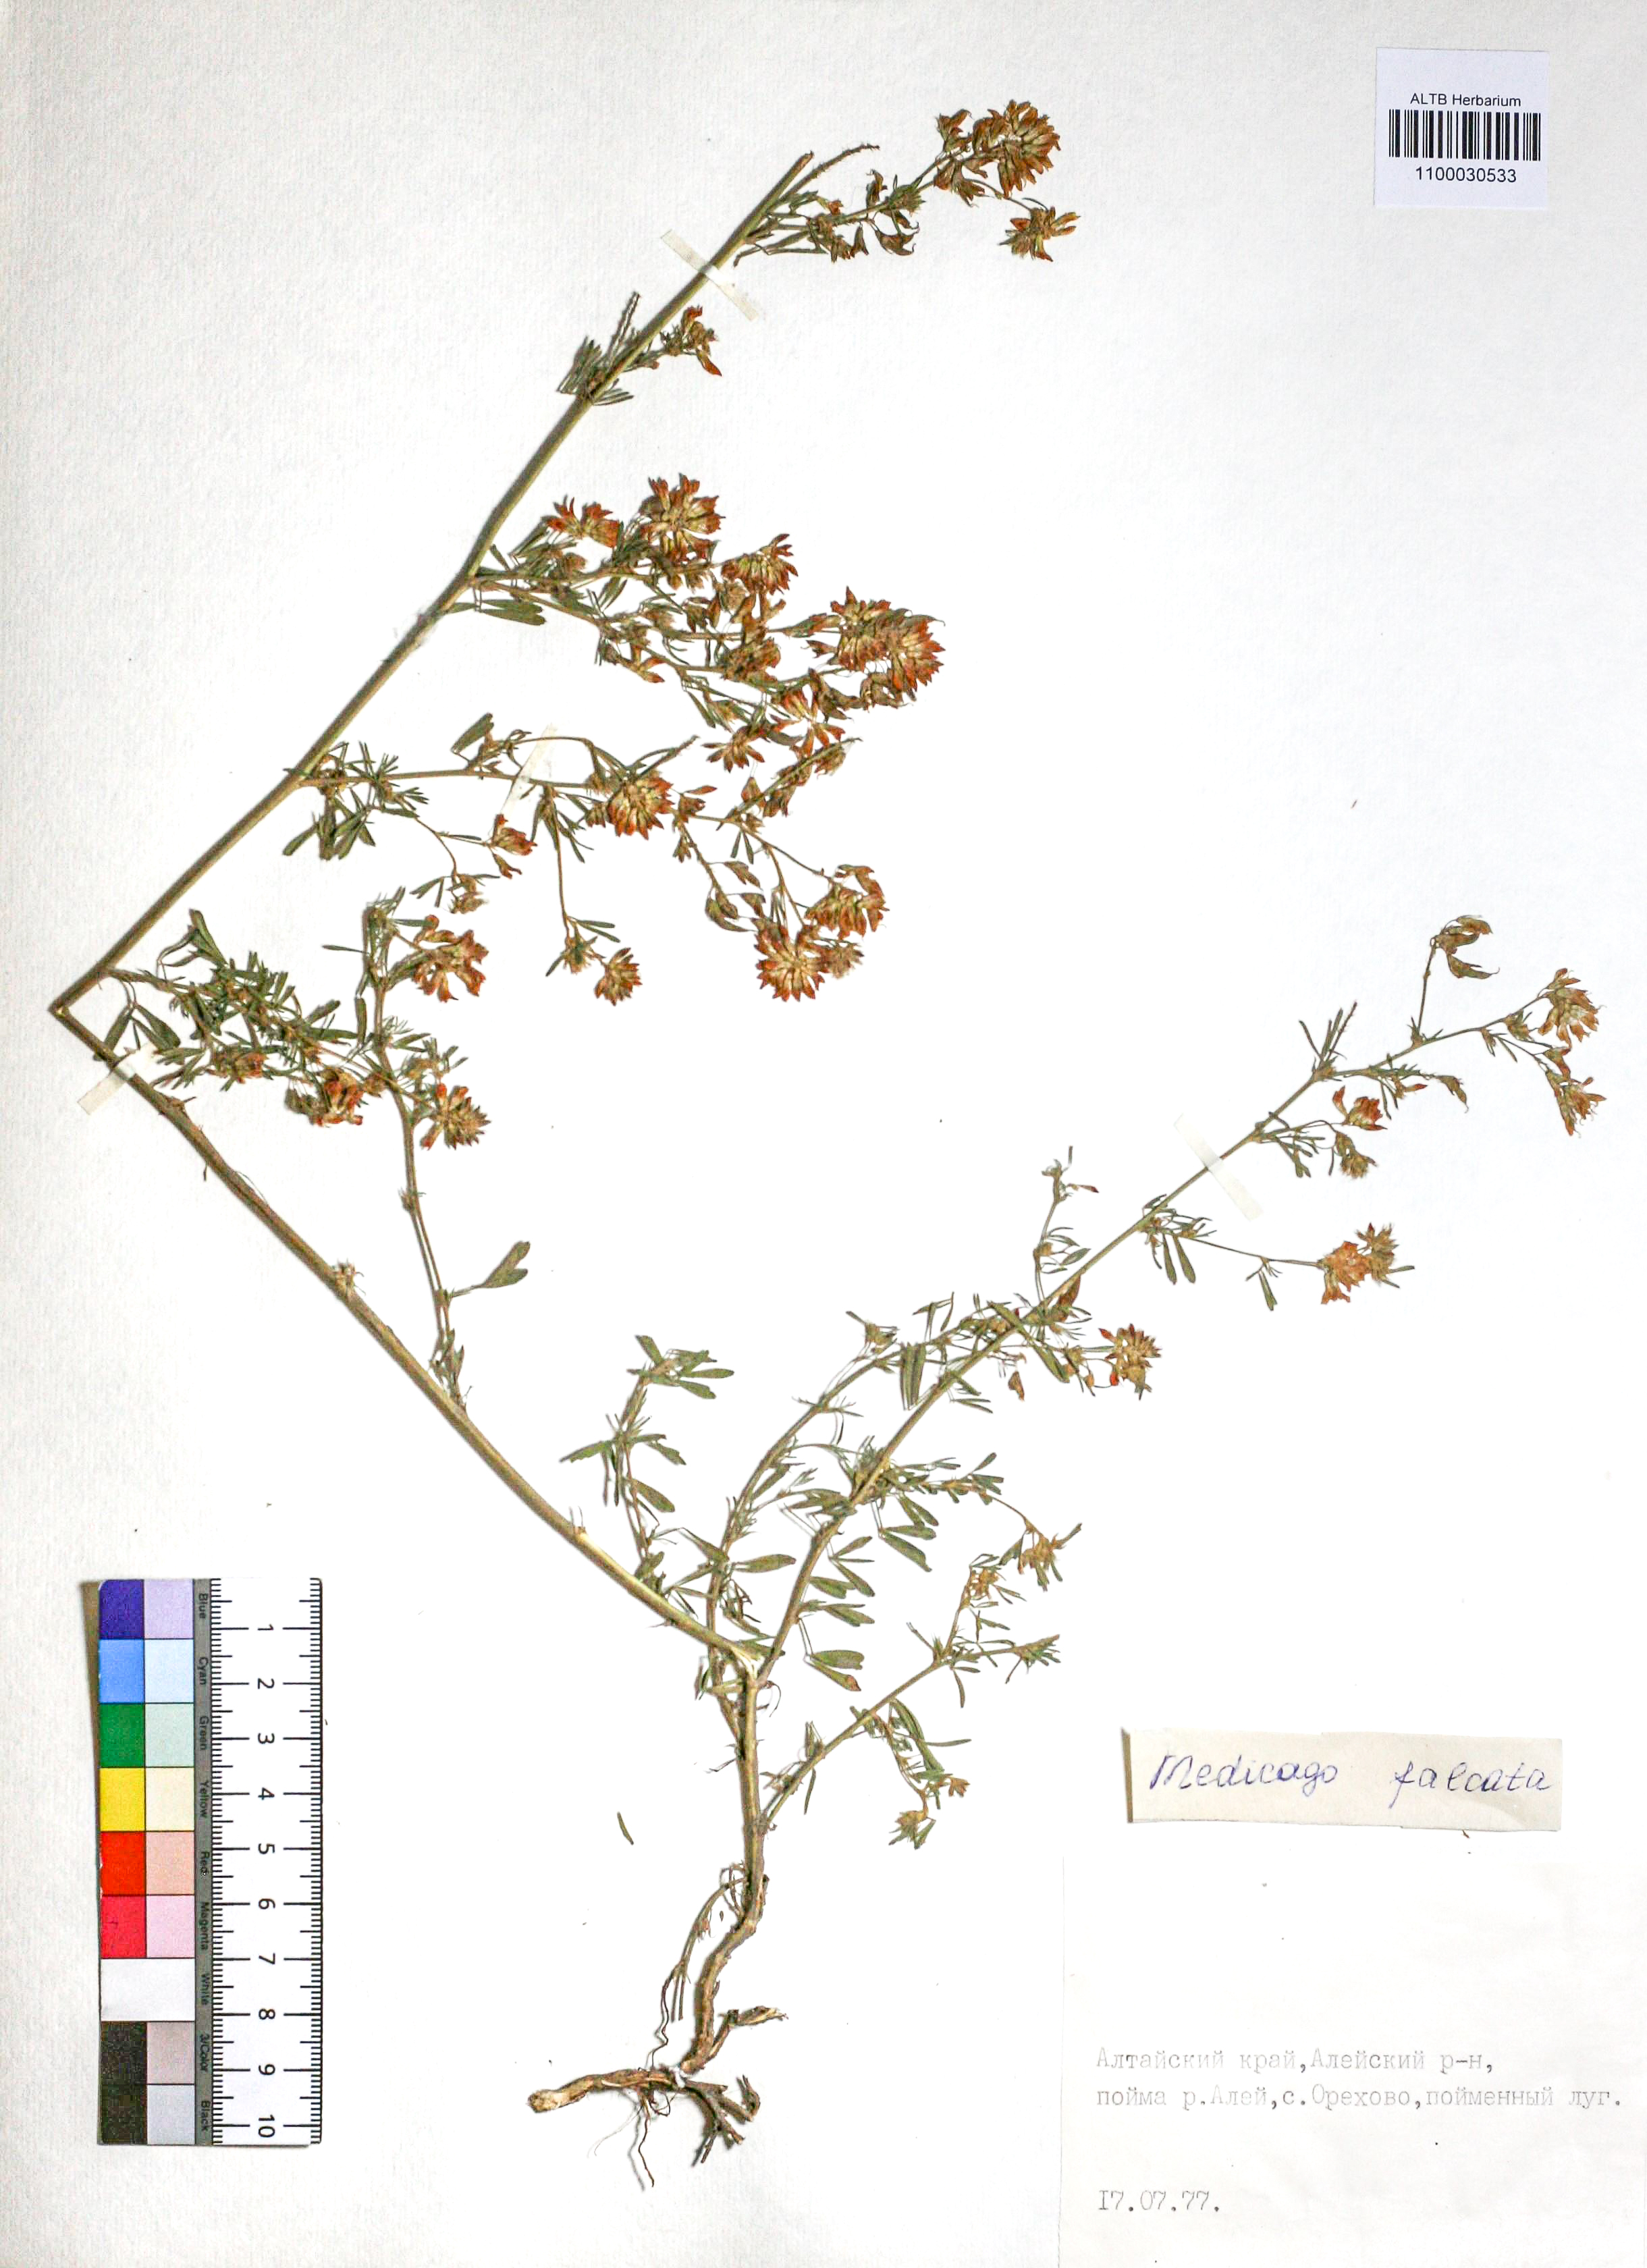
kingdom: Plantae
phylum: Tracheophyta
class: Magnoliopsida
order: Fabales
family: Fabaceae
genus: Medicago
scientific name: Medicago falcata
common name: Sickle medick
